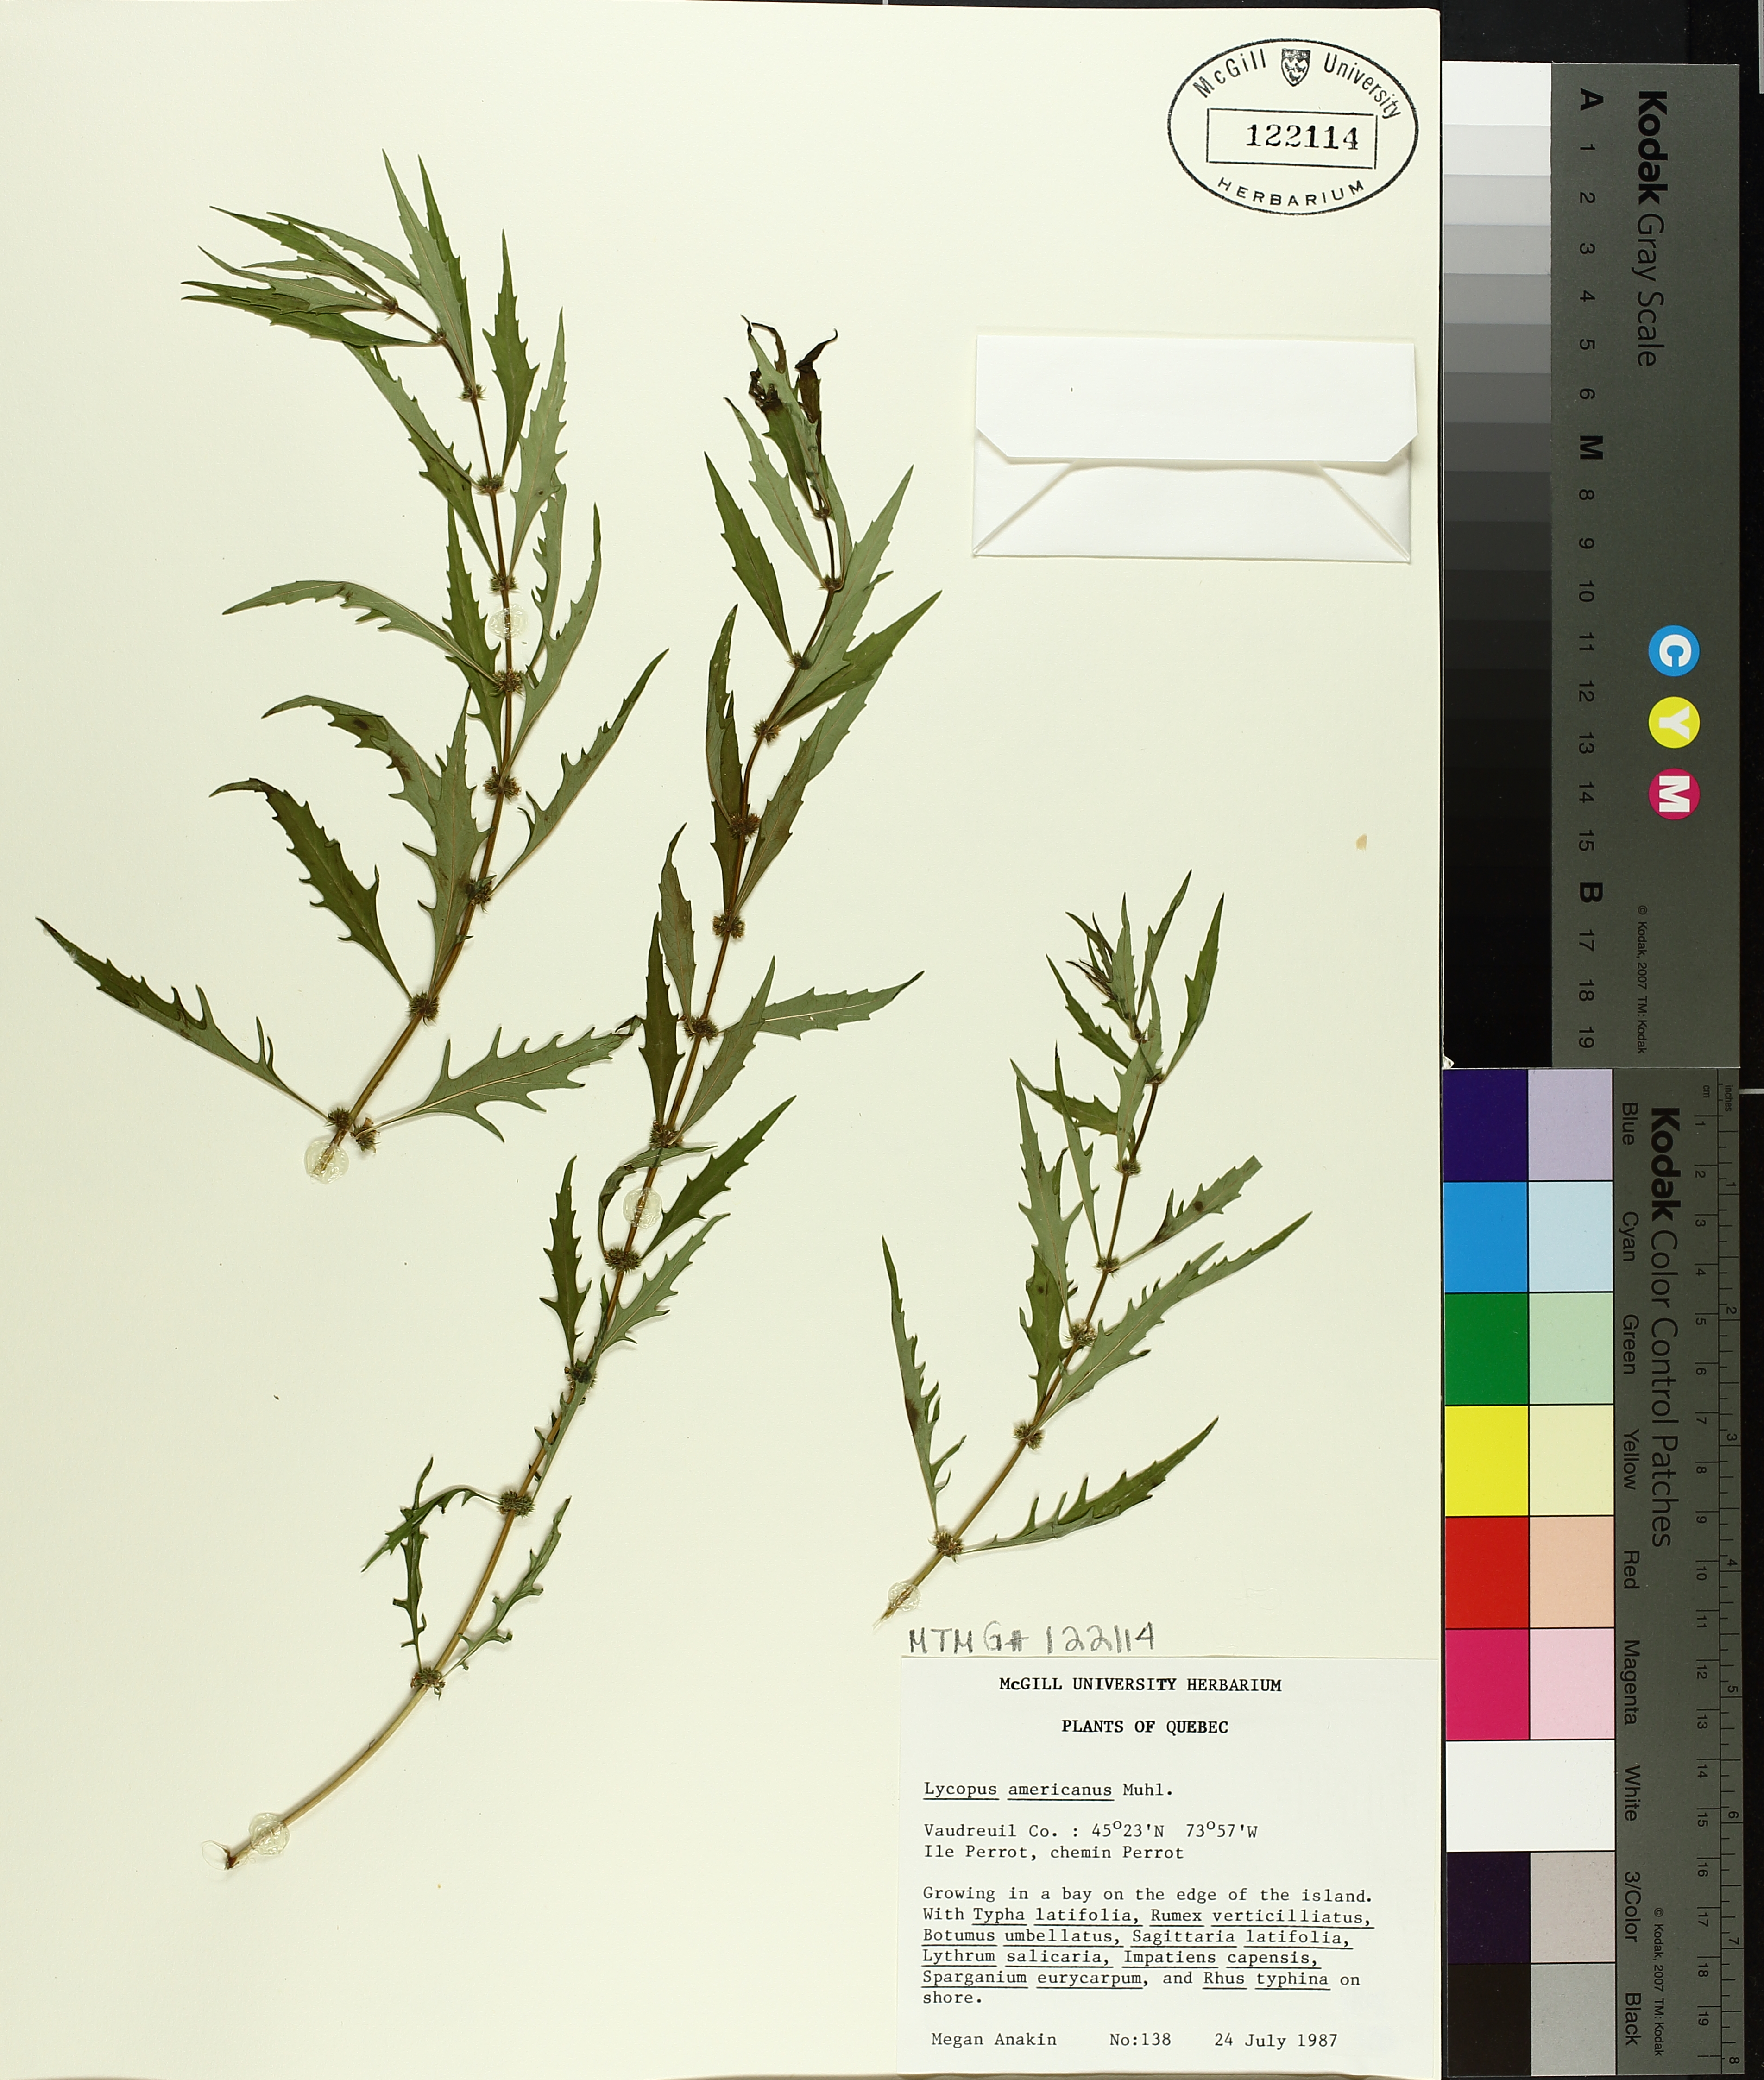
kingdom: Plantae
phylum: Tracheophyta
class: Magnoliopsida
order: Lamiales
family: Lamiaceae
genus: Lycopus
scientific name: Lycopus americanus
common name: American bugleweed
